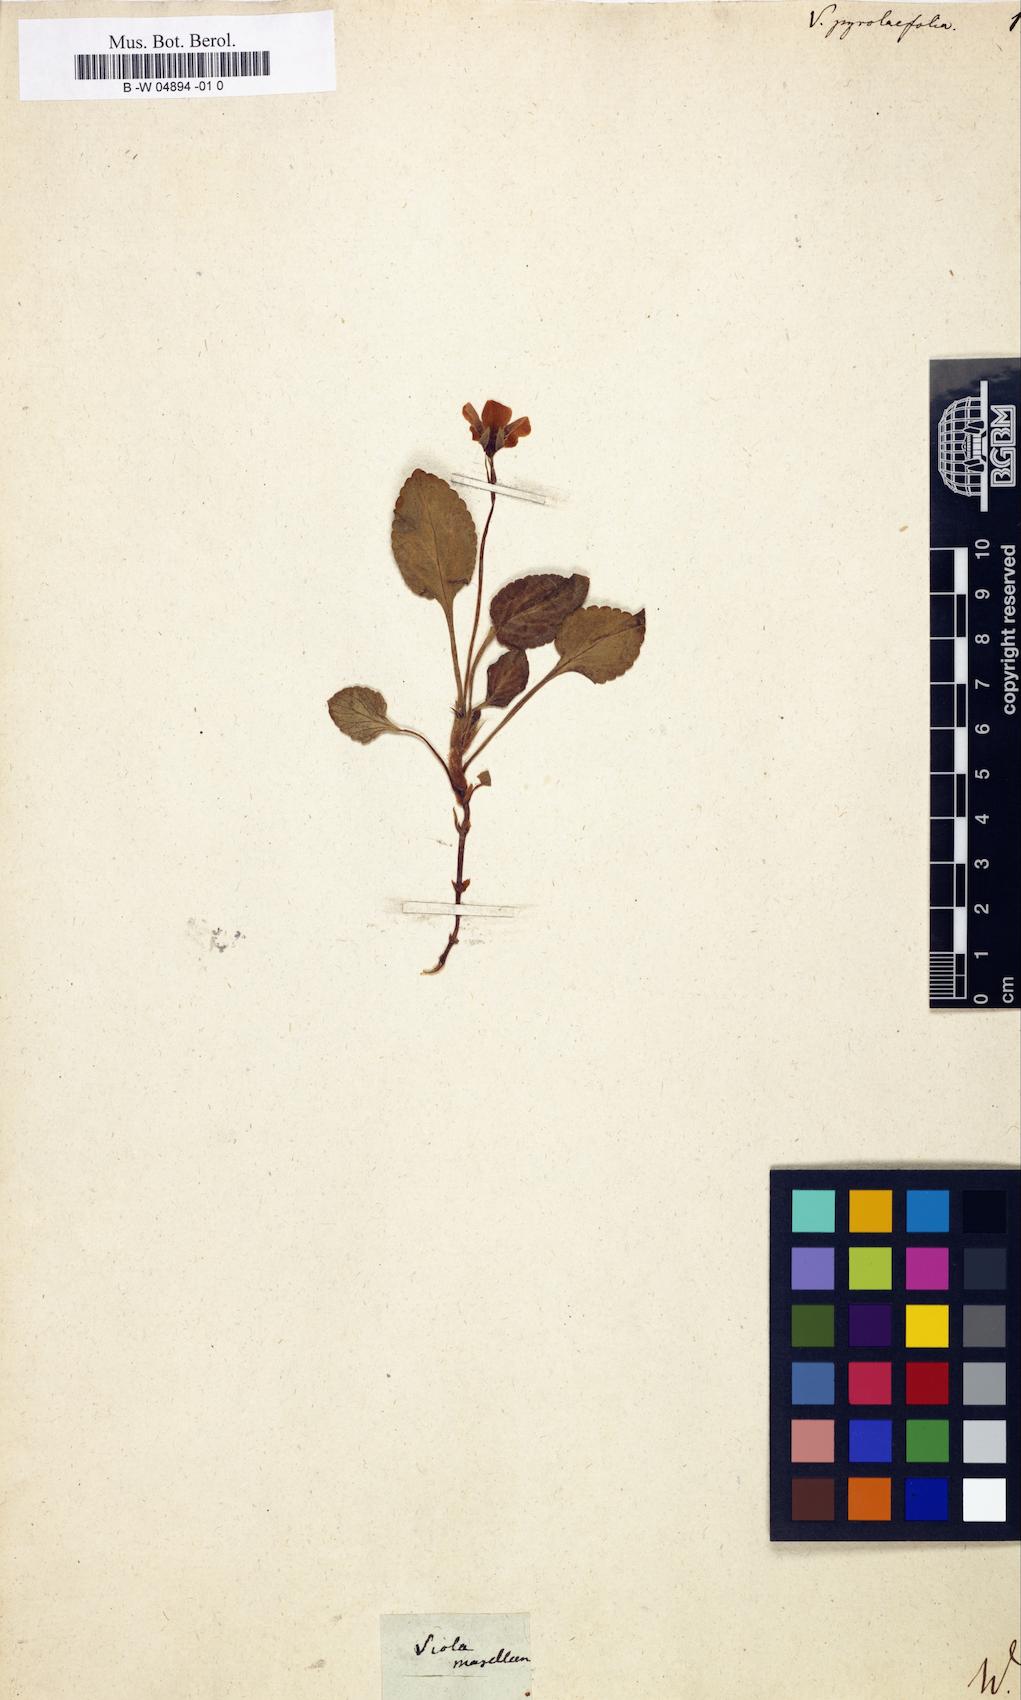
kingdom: Plantae
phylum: Tracheophyta
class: Magnoliopsida
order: Malpighiales
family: Violaceae
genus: Viola
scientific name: Viola maculata
